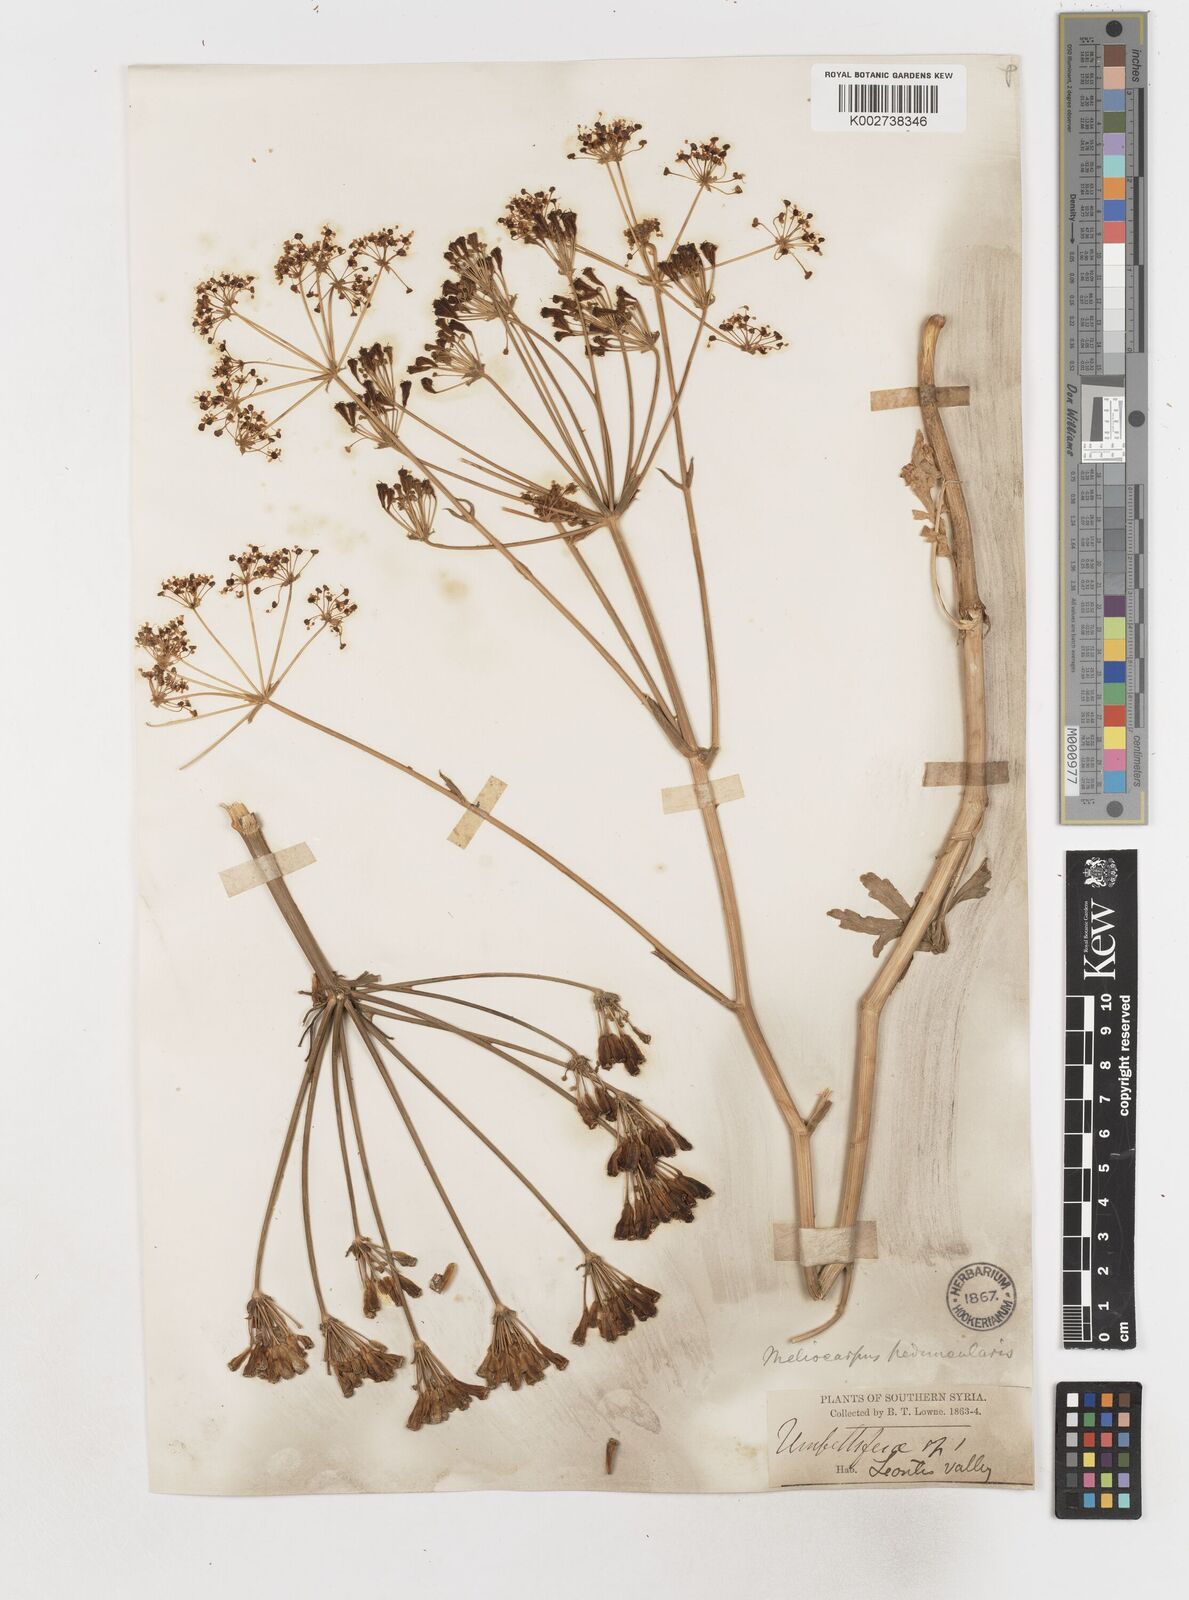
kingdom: Plantae
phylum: Tracheophyta
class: Magnoliopsida
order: Apiales
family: Apiaceae
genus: Heptaptera
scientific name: Heptaptera anisoptera
